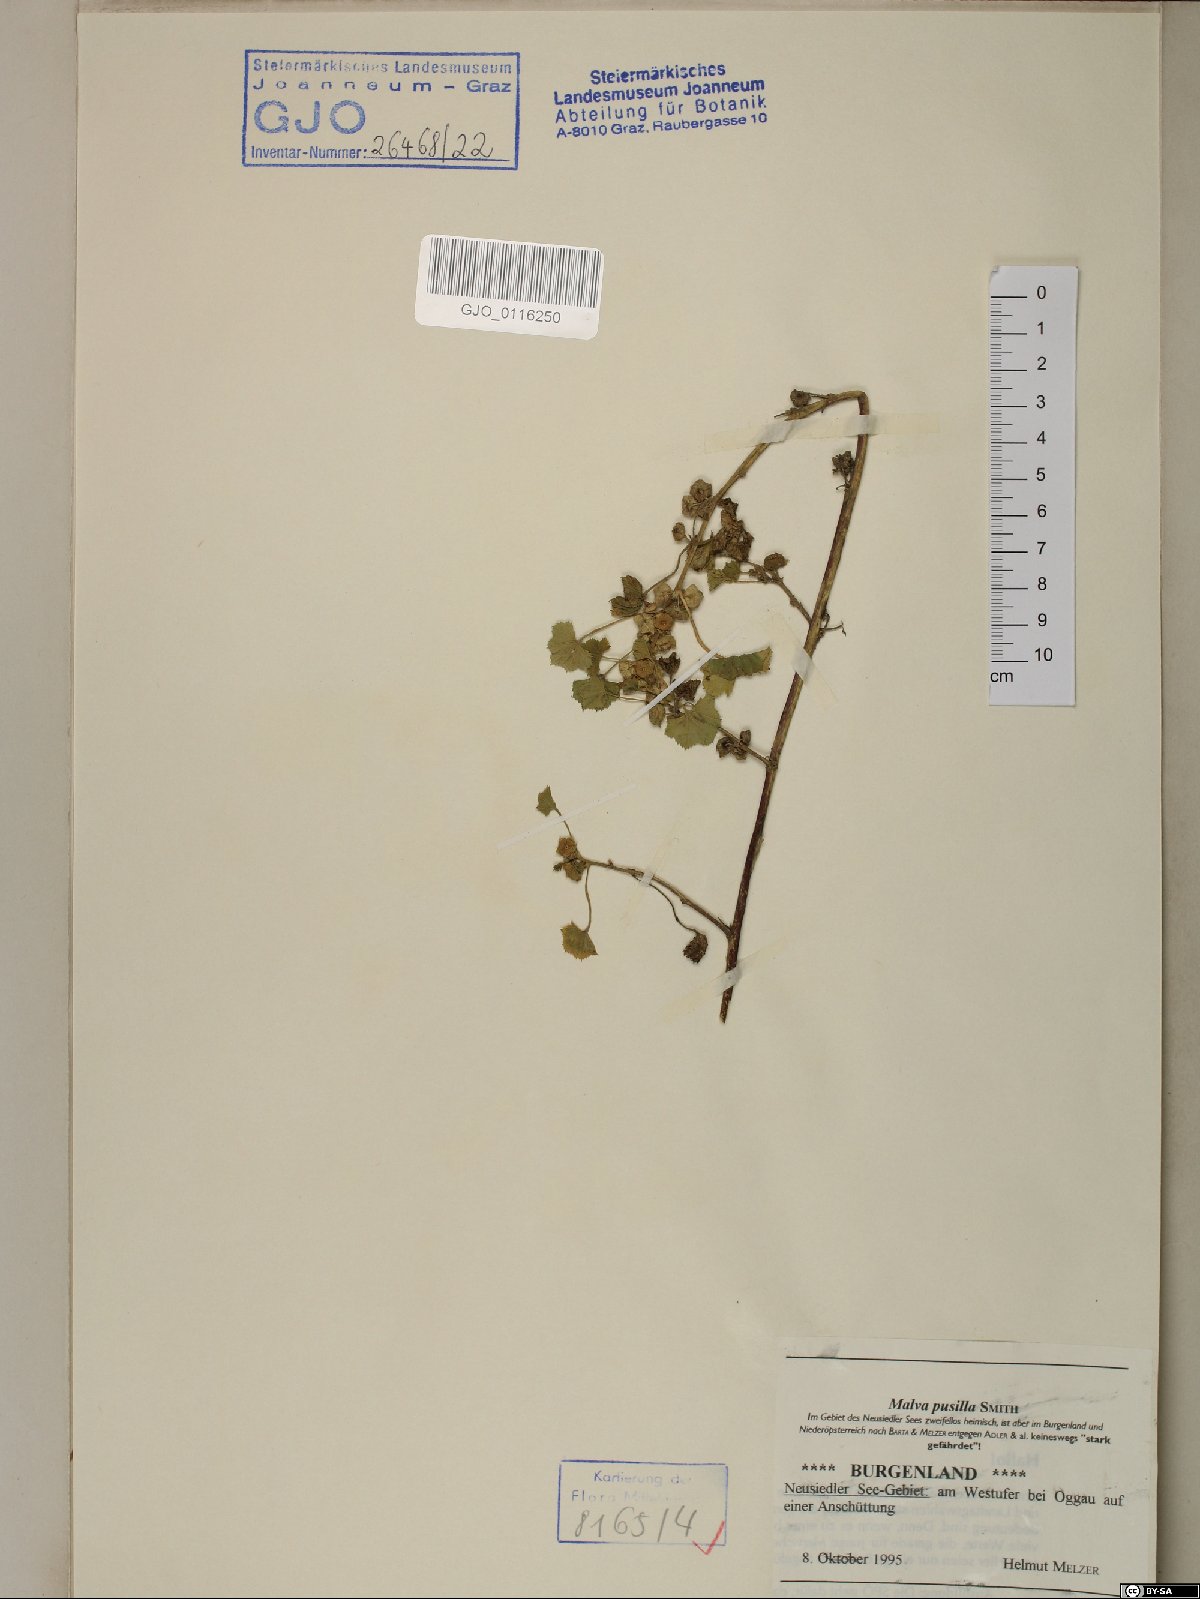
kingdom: Plantae
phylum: Tracheophyta
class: Magnoliopsida
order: Malvales
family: Malvaceae
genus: Malva
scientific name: Malva pusilla
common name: Small mallow
